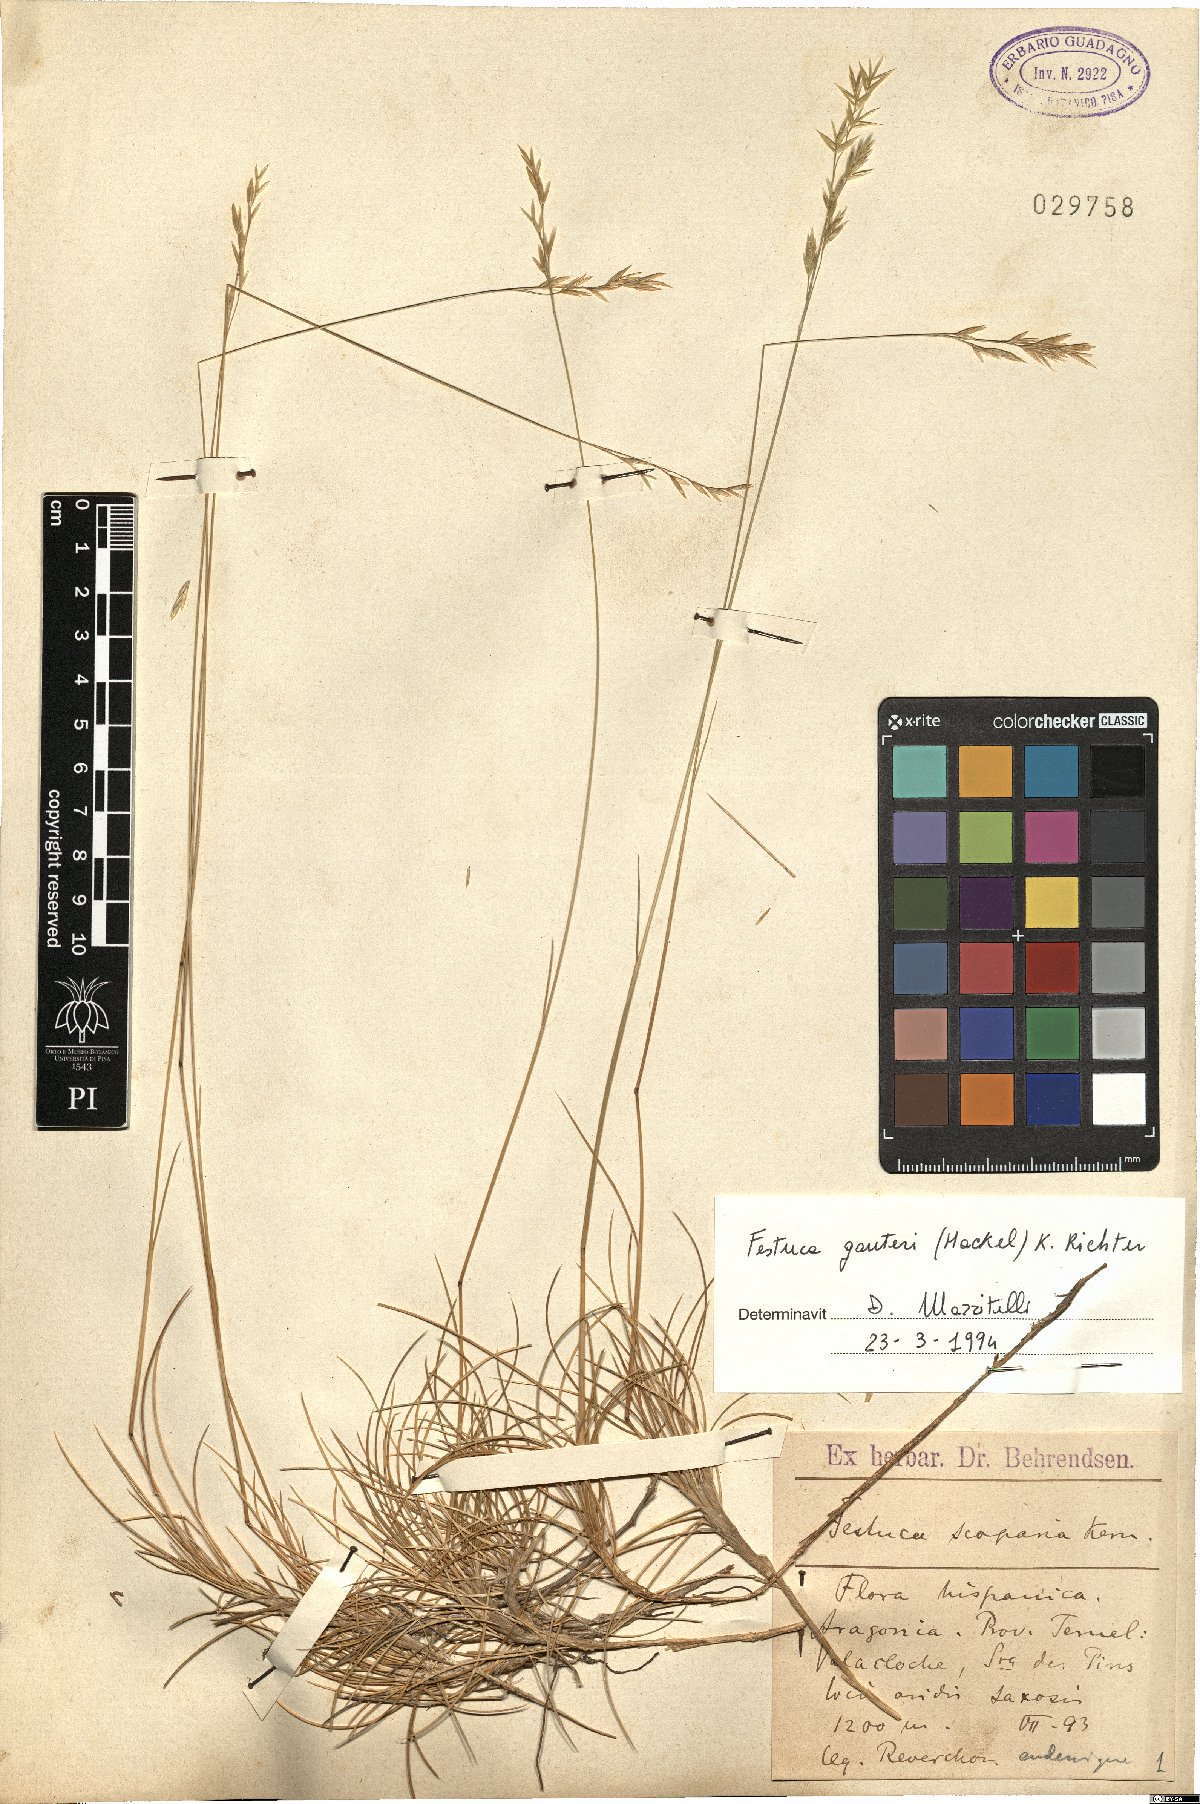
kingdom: Plantae
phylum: Tracheophyta
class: Liliopsida
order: Poales
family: Poaceae
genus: Festuca
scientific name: Festuca gautieri
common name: Spiky fescue
